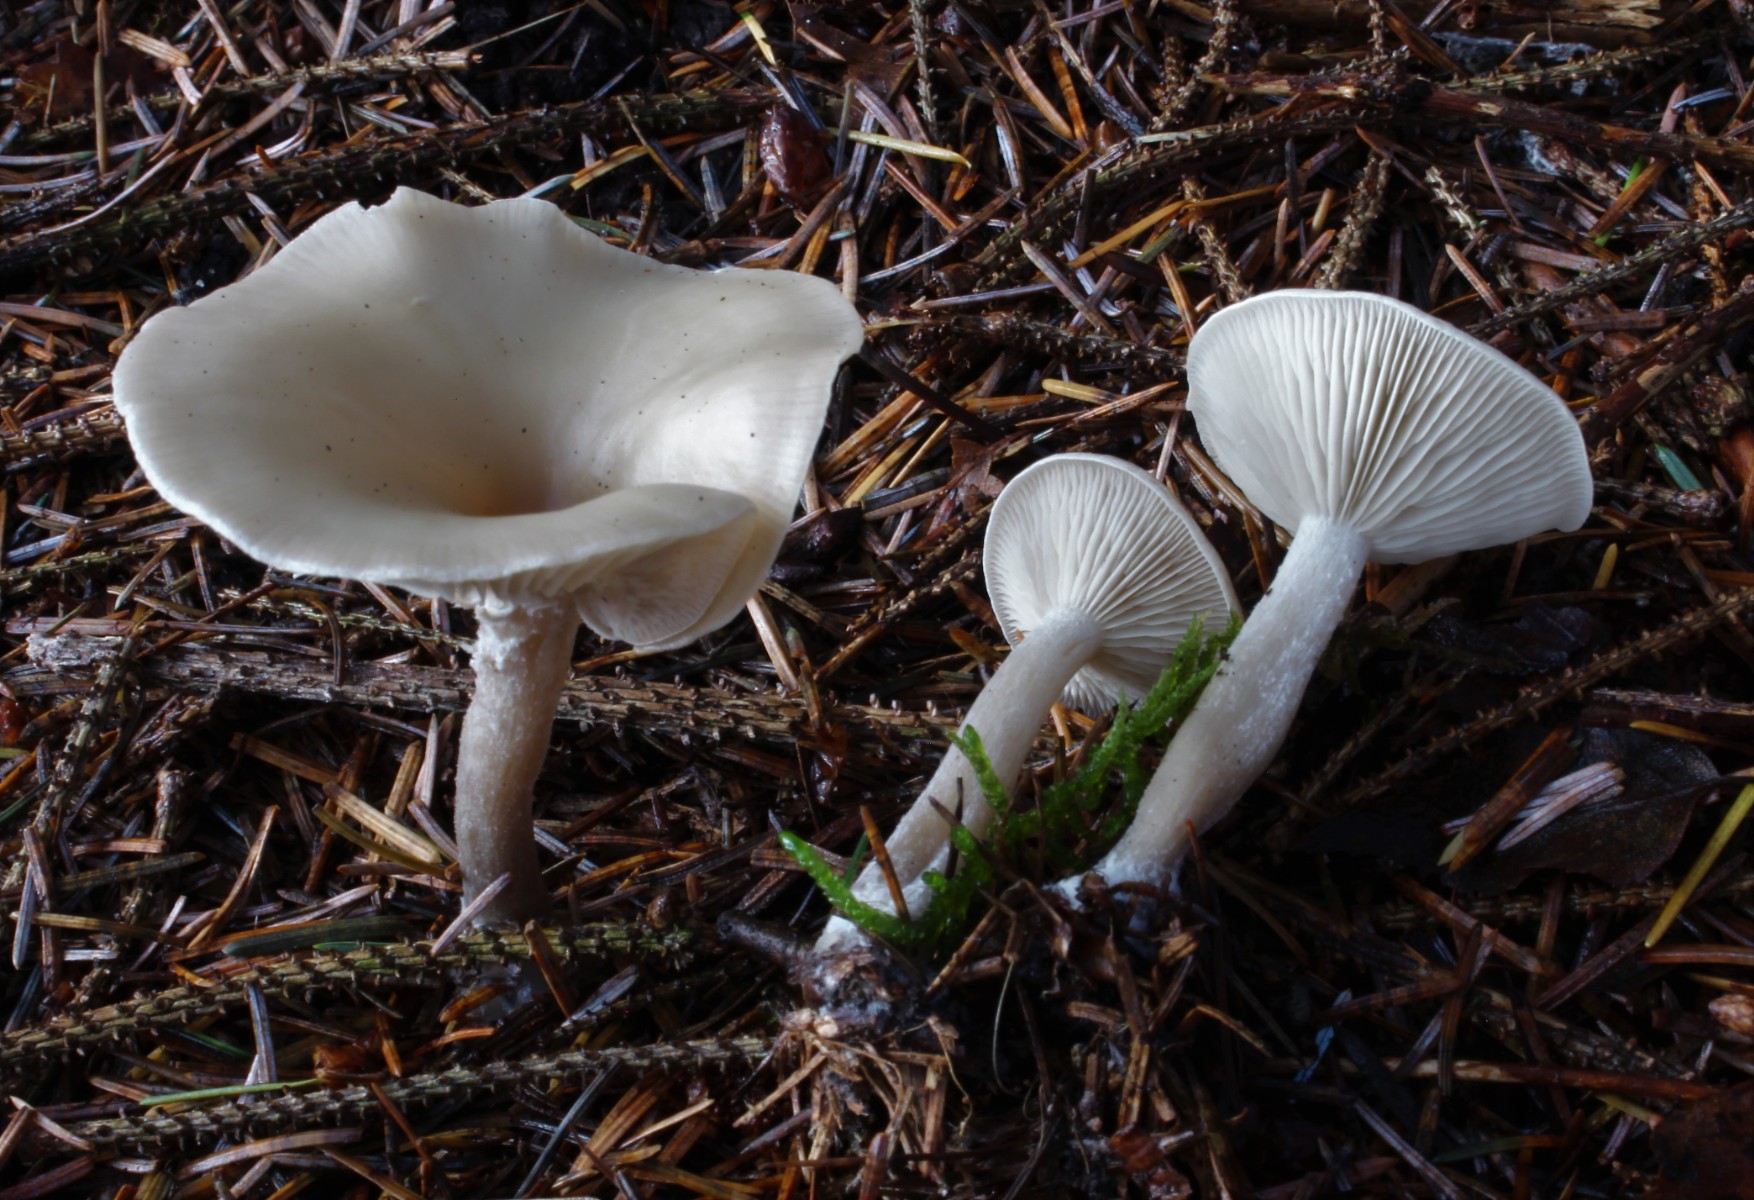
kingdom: Fungi
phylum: Basidiomycota
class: Agaricomycetes
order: Agaricales
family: Tricholomataceae
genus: Clitocybe
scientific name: Clitocybe metachroa
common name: grå tragthat
